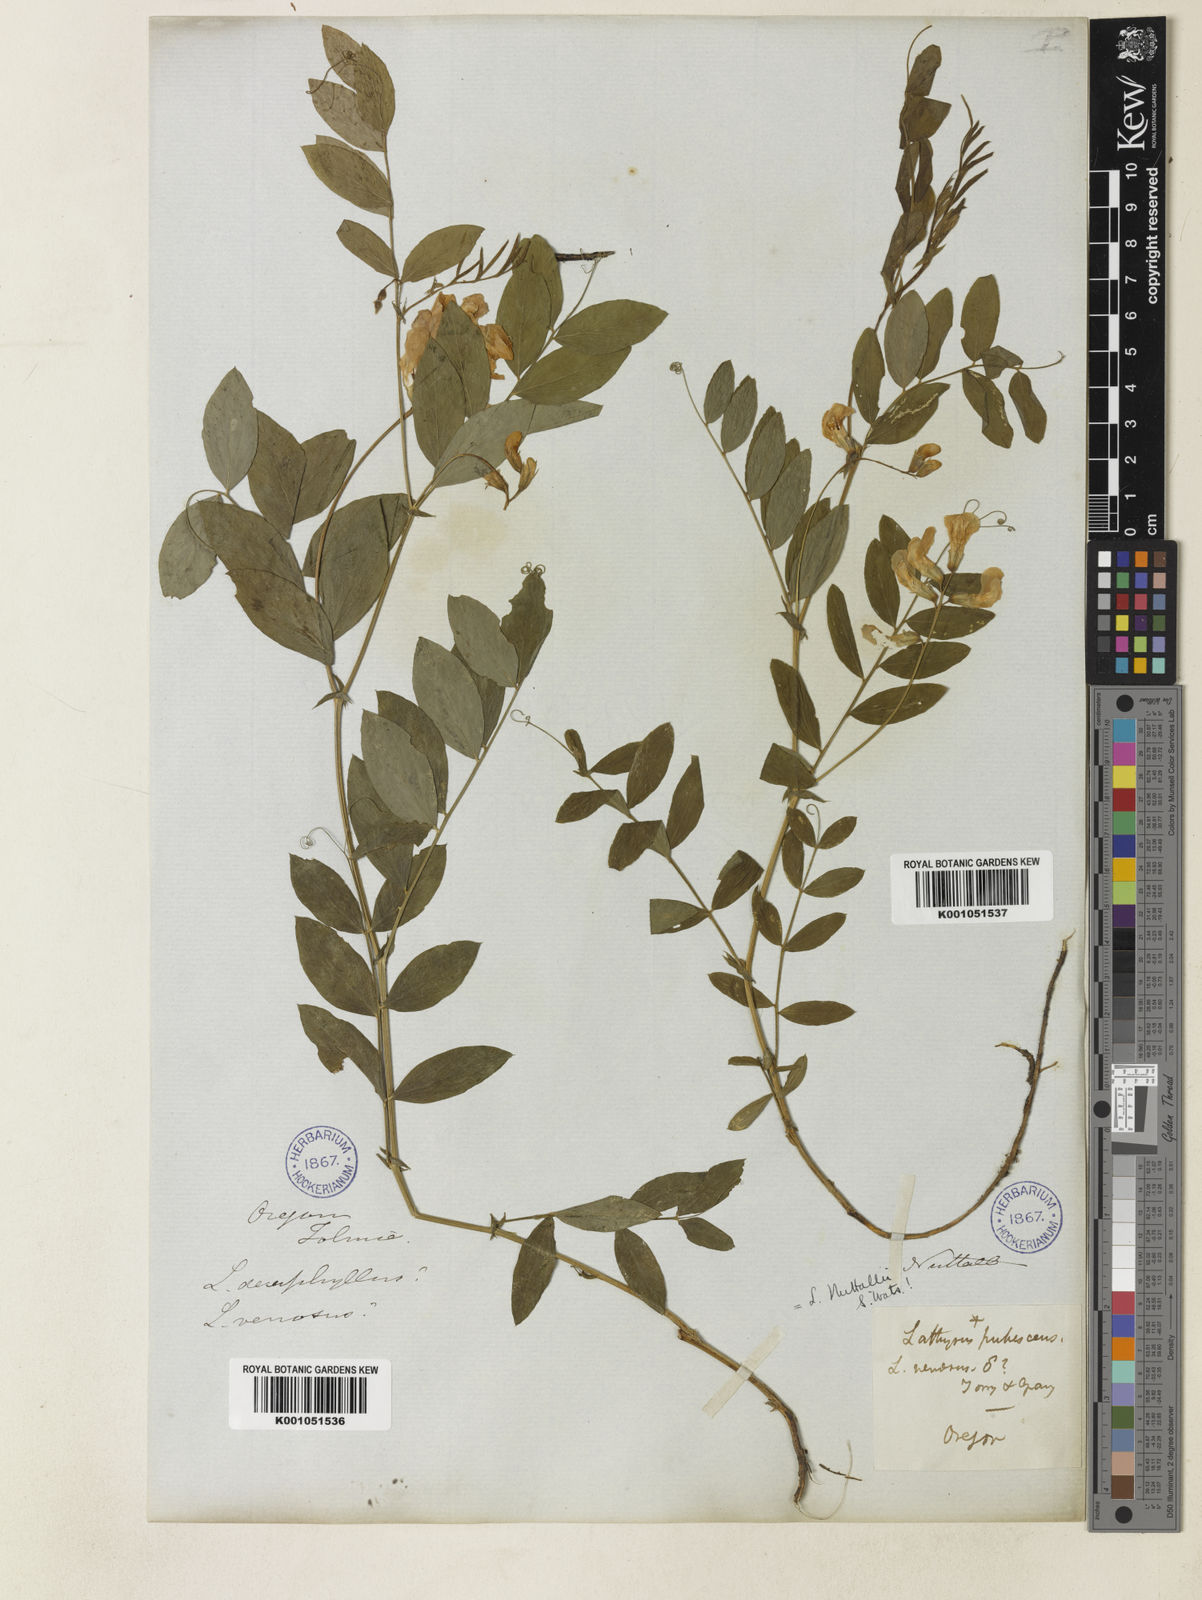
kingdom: Plantae
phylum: Tracheophyta
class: Magnoliopsida
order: Fabales
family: Fabaceae
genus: Lathyrus
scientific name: Lathyrus venosus
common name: Forest-pea
